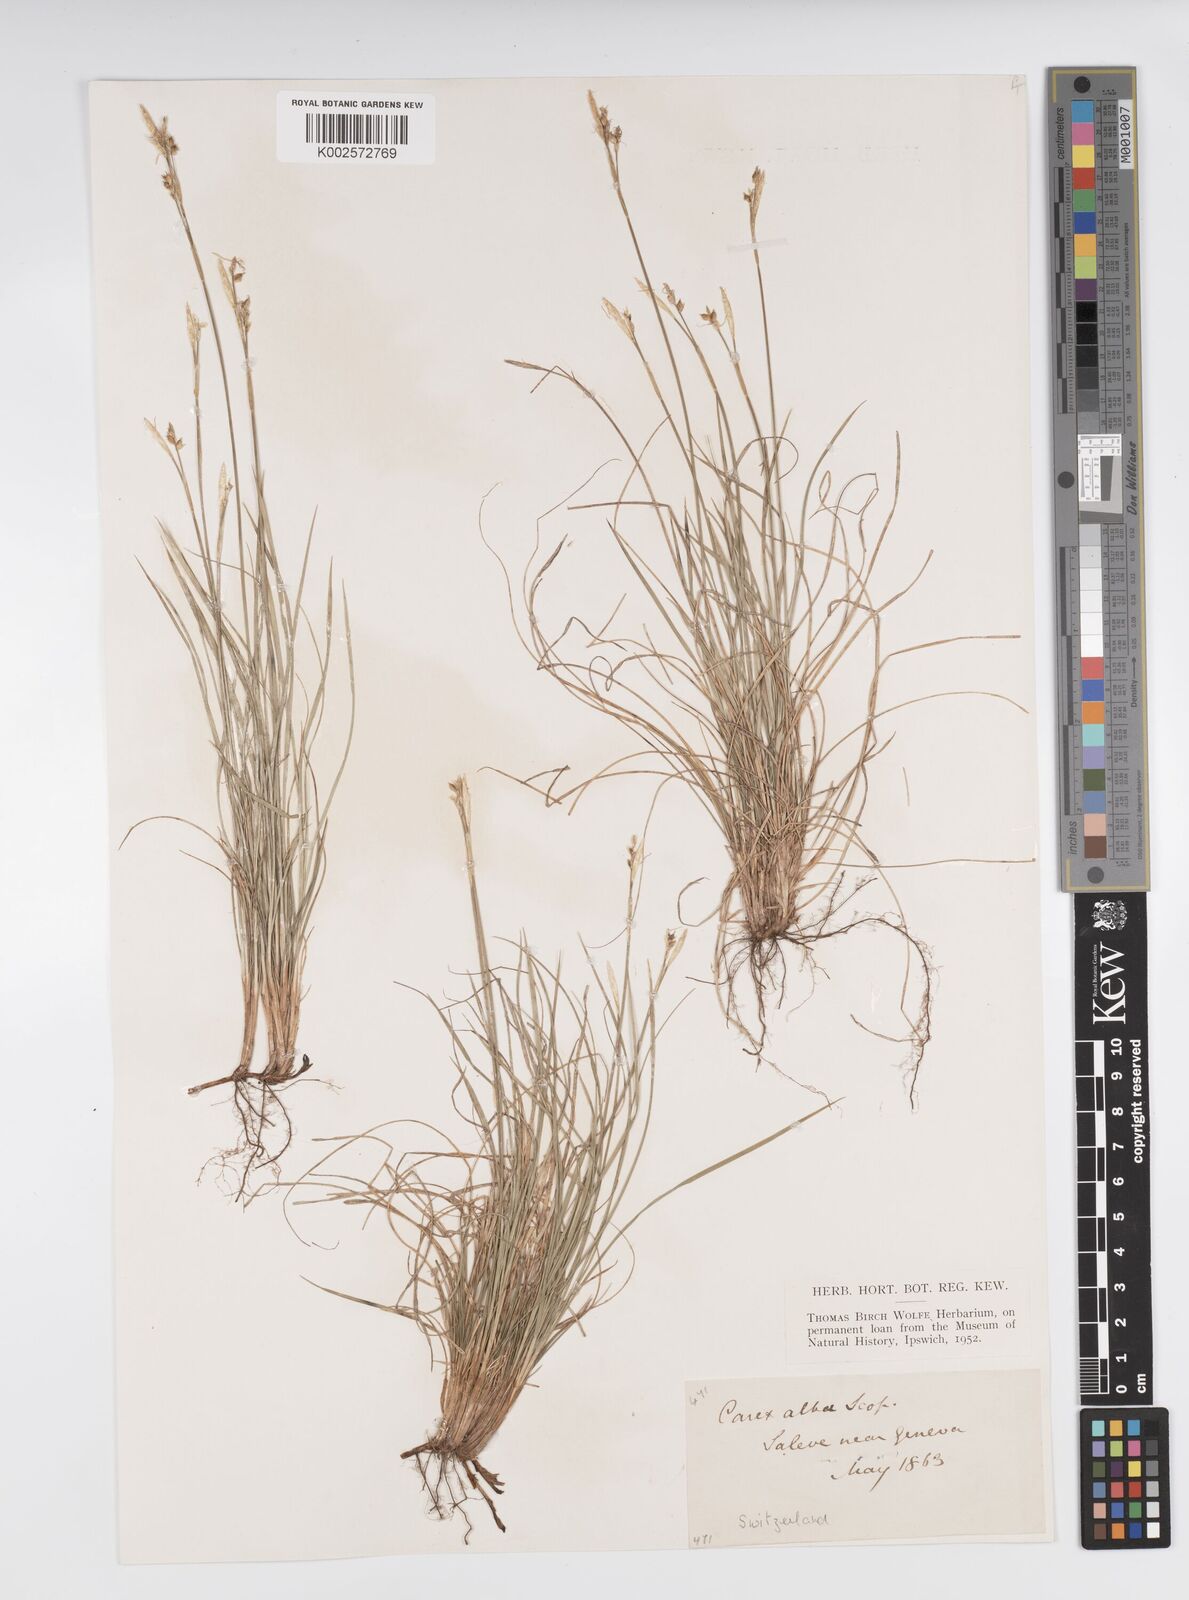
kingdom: Plantae
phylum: Tracheophyta
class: Liliopsida
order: Poales
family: Cyperaceae
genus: Carex
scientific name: Carex alba
